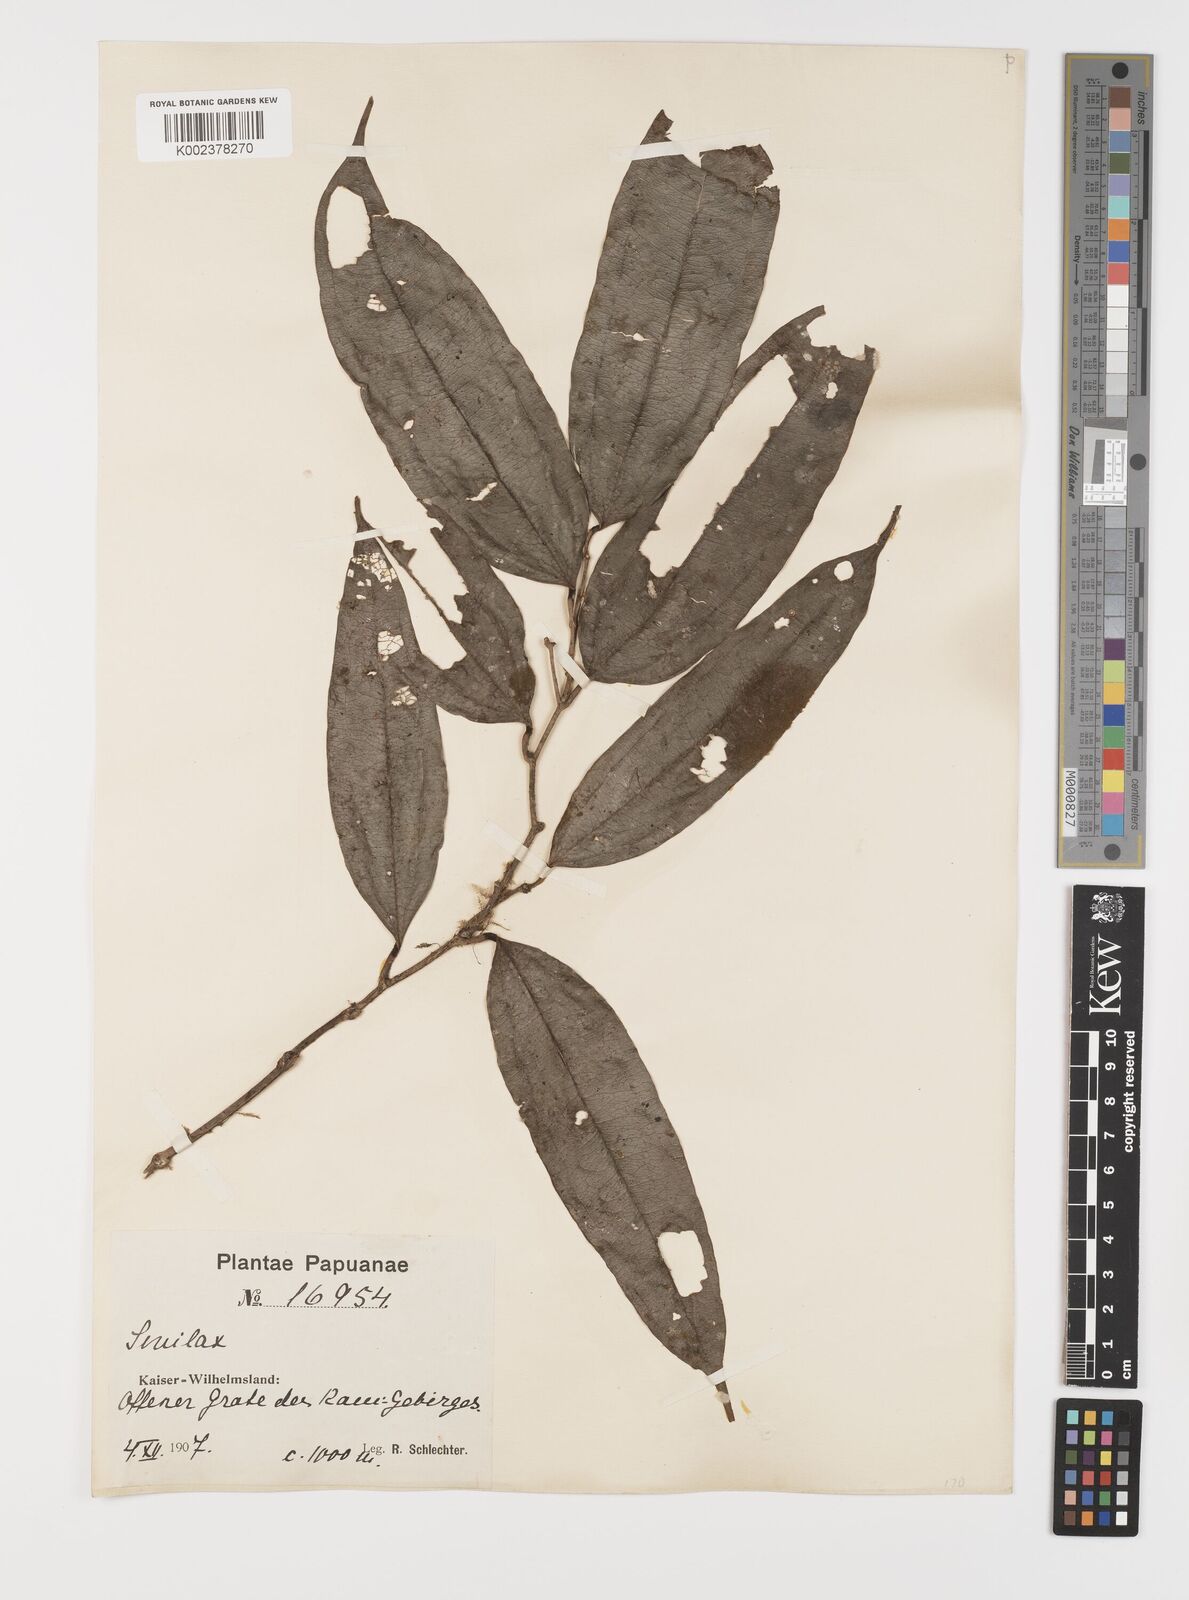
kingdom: Plantae
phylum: Tracheophyta
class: Liliopsida
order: Liliales
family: Smilacaceae
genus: Smilax
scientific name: Smilax
